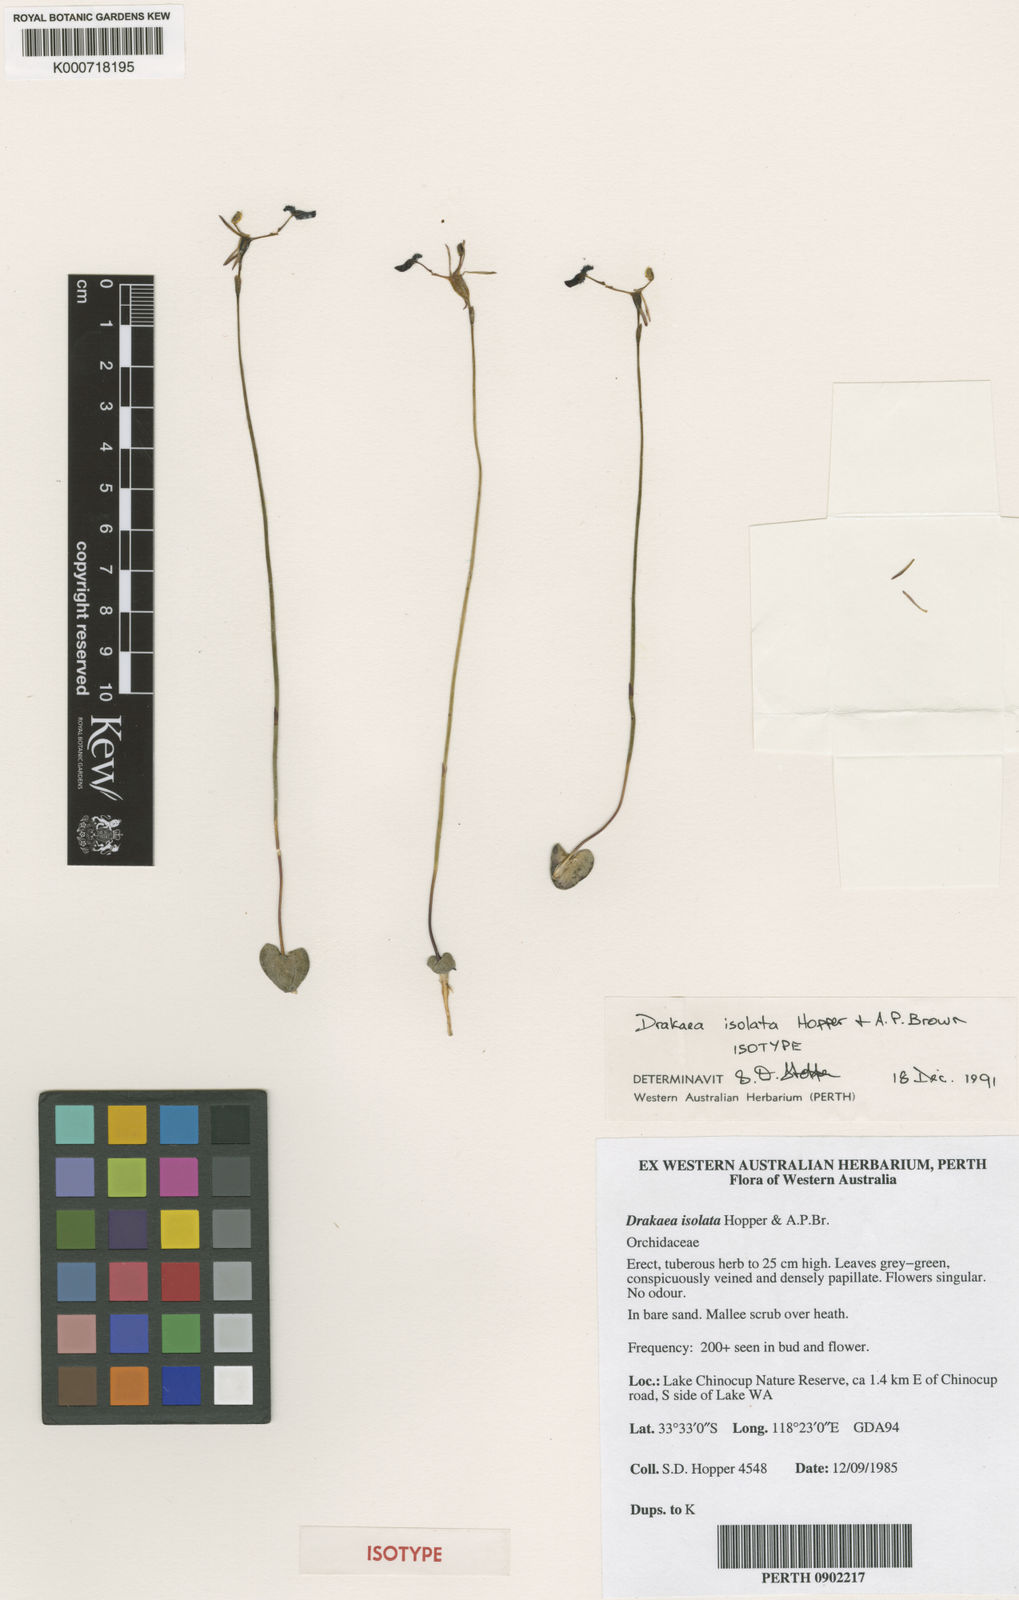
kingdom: Plantae
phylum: Tracheophyta
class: Liliopsida
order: Asparagales
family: Orchidaceae
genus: Drakaea
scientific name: Drakaea isolata
